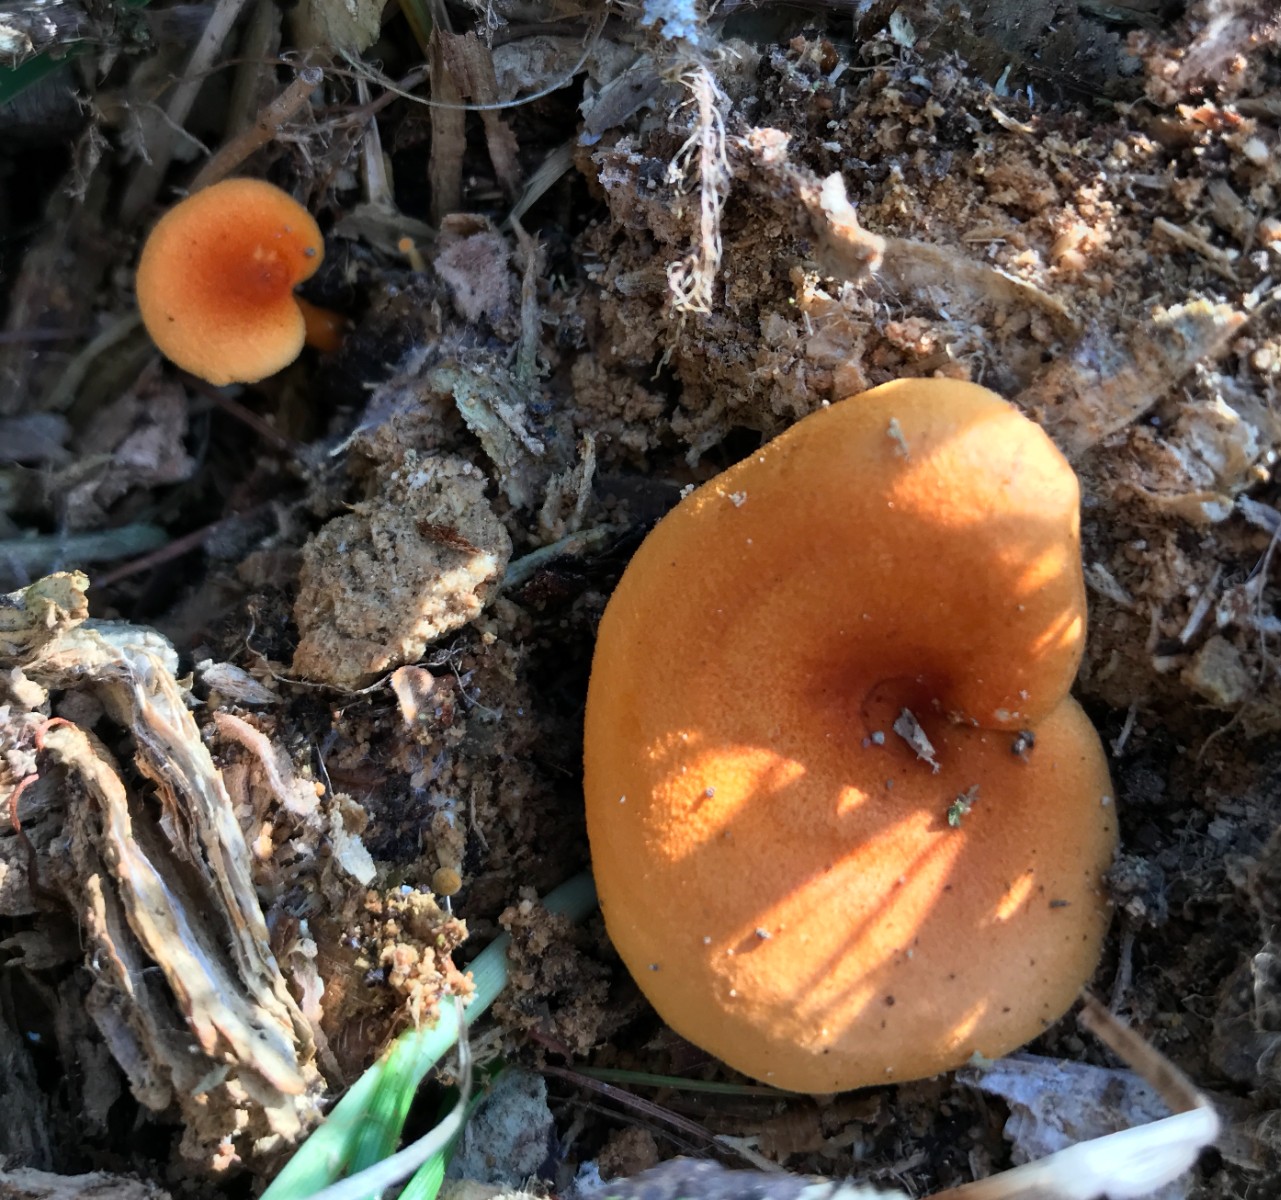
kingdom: Fungi
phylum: Basidiomycota
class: Agaricomycetes
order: Boletales
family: Hygrophoropsidaceae
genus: Hygrophoropsis
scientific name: Hygrophoropsis aurantiaca
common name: almindelig orangekantarel
